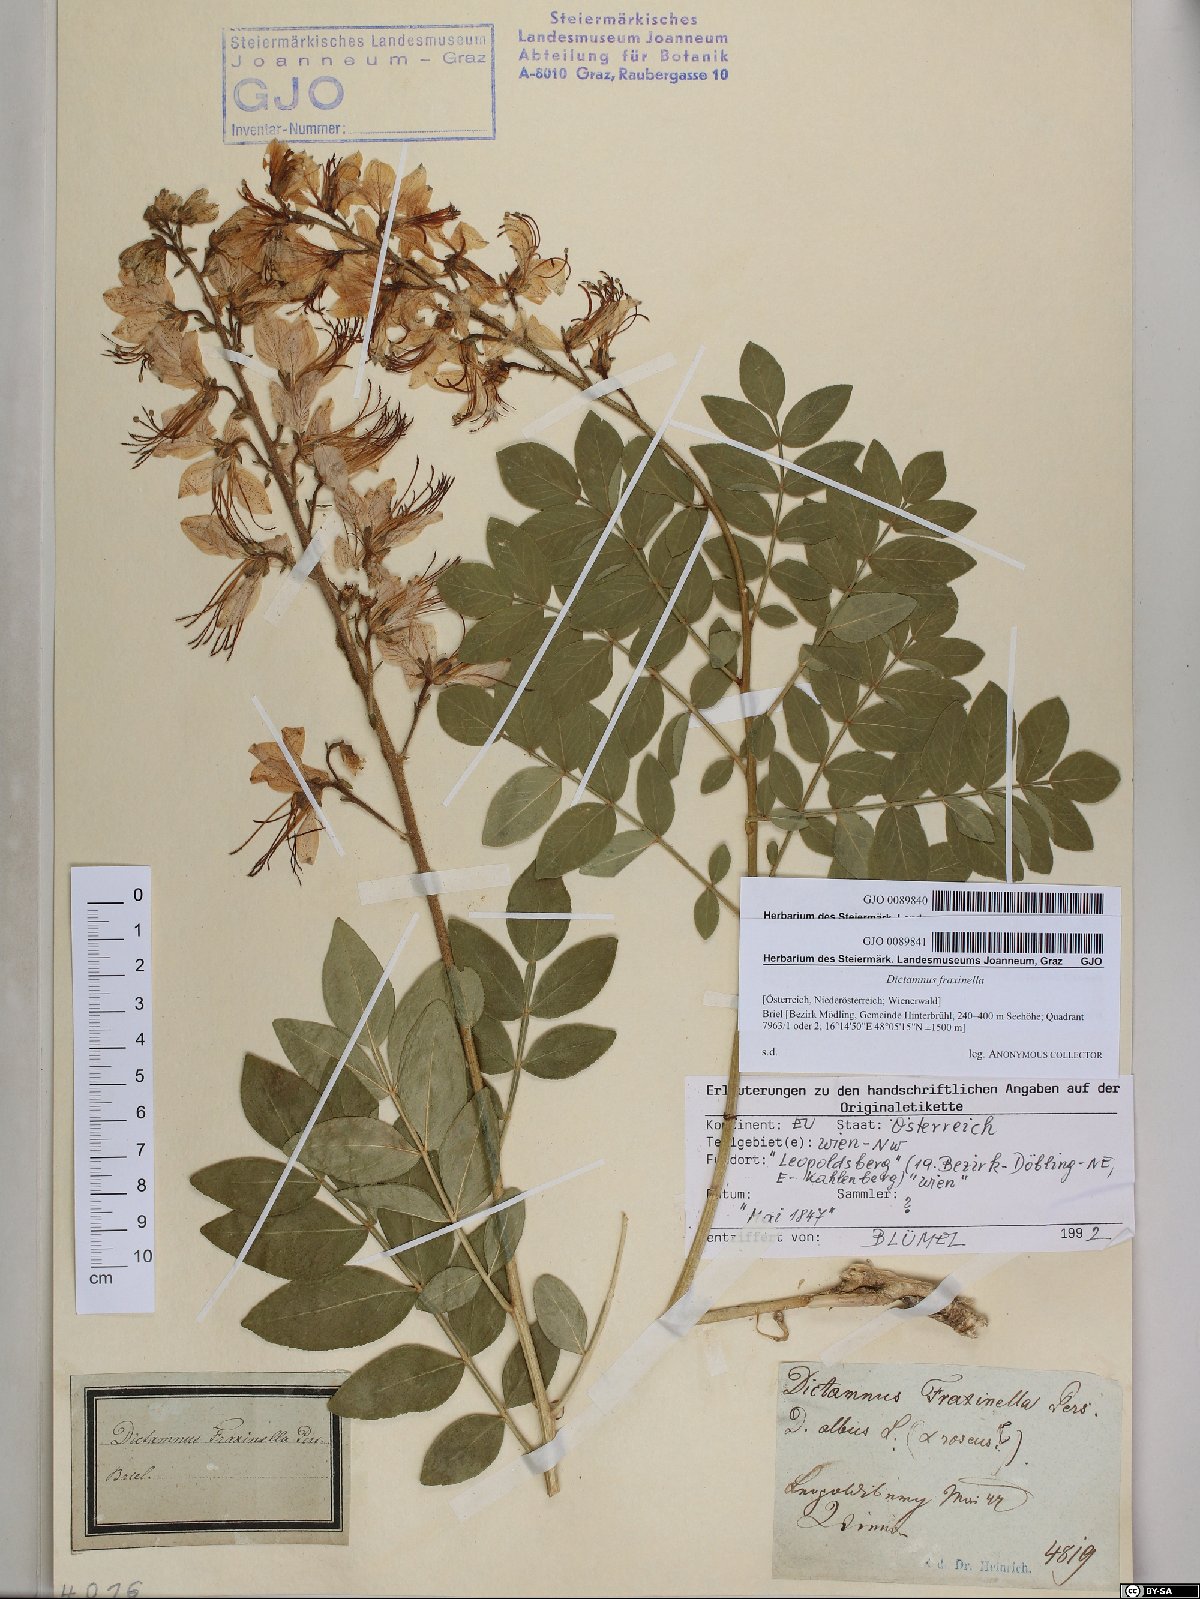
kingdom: Plantae
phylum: Tracheophyta
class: Magnoliopsida
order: Sapindales
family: Rutaceae
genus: Dictamnus
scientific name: Dictamnus albus
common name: Gasplant
